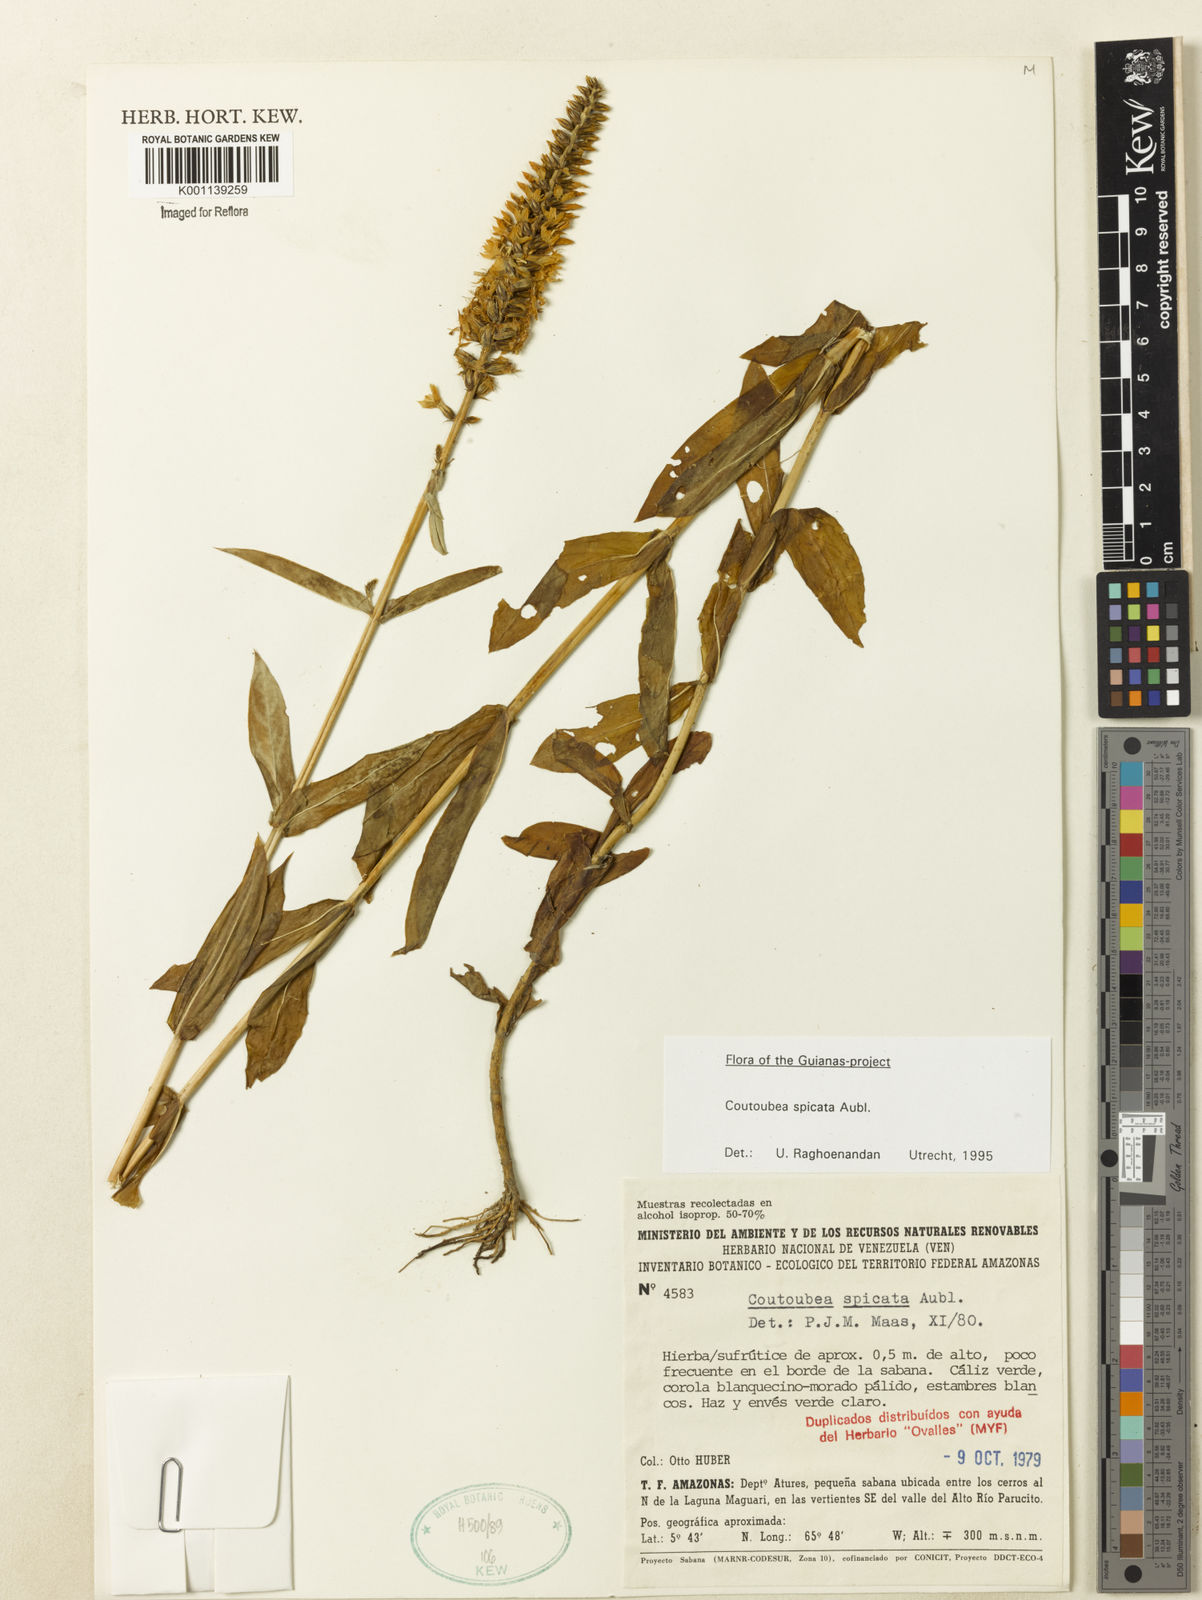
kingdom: Plantae
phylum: Tracheophyta
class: Magnoliopsida
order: Gentianales
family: Gentianaceae
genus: Coutoubea
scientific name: Coutoubea spicata
